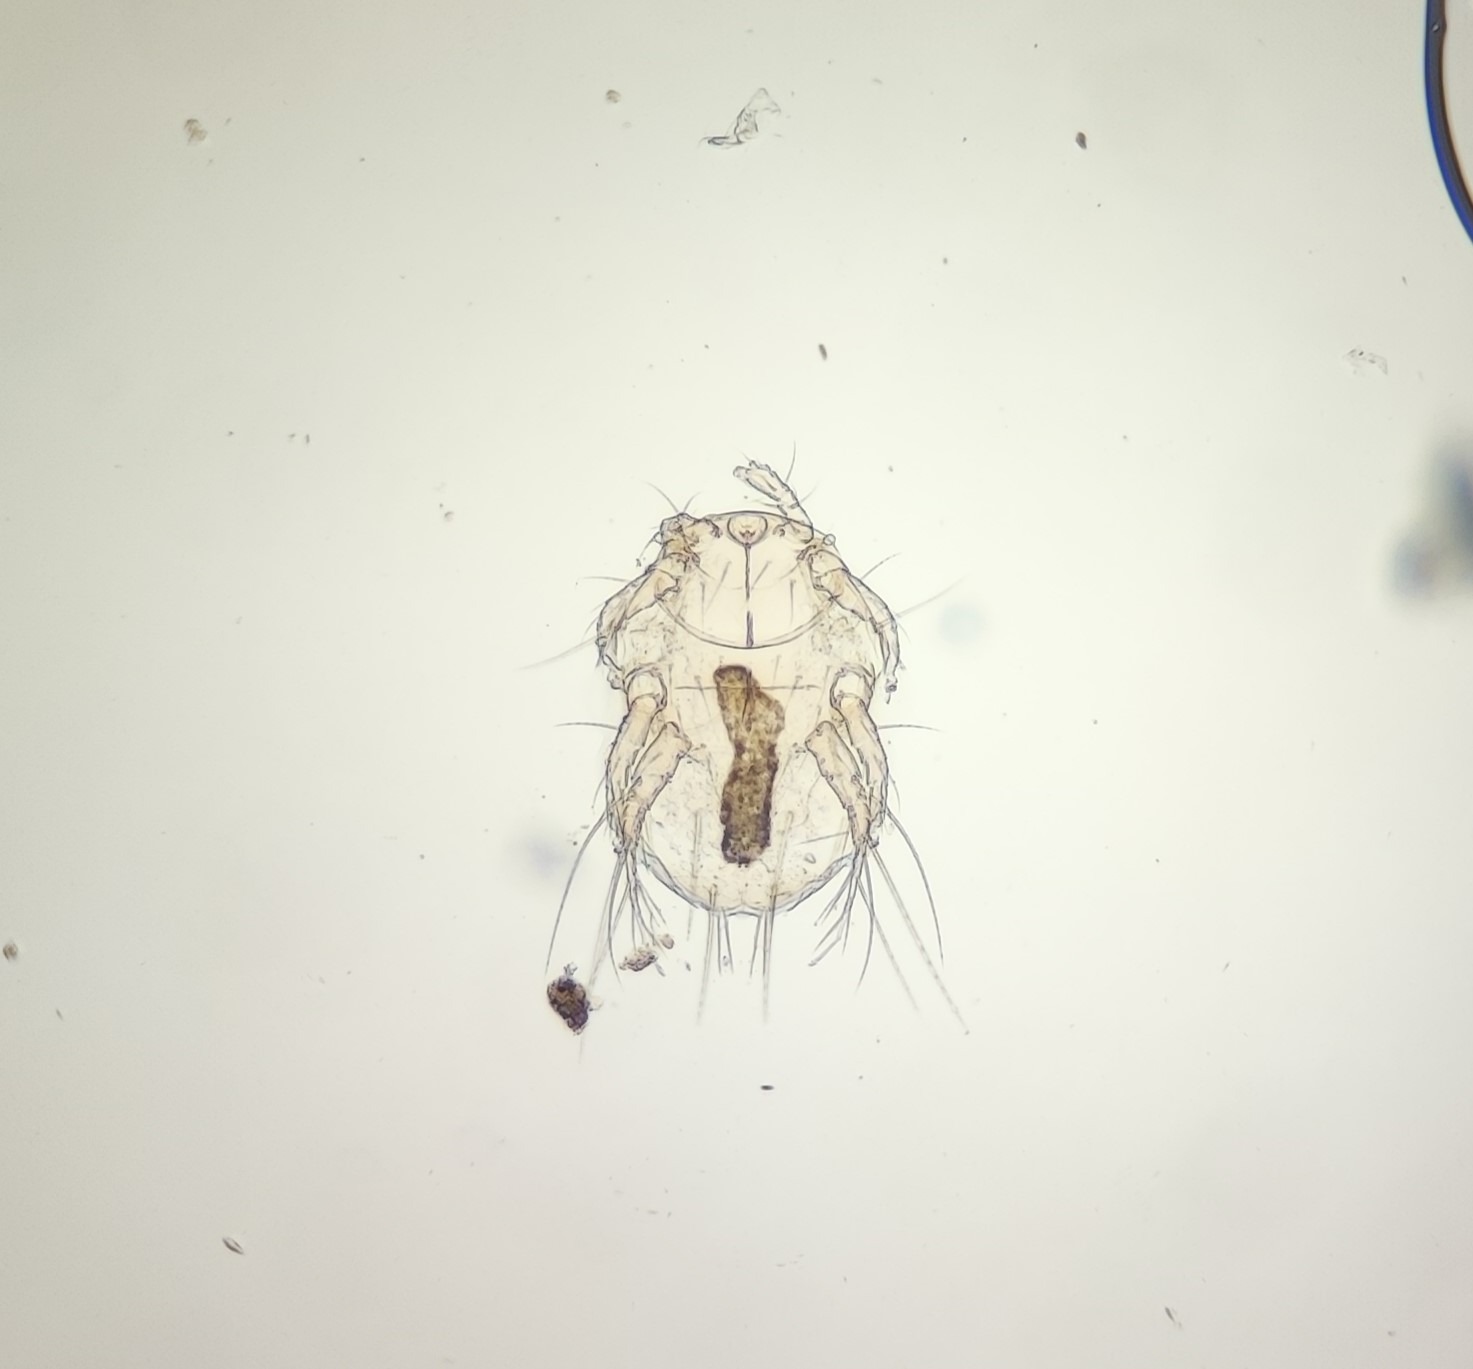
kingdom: Animalia
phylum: Arthropoda
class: Arachnida
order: Trombidiformes
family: Pygmephoridae
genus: Petalomium
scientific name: Petalomium formicarum
